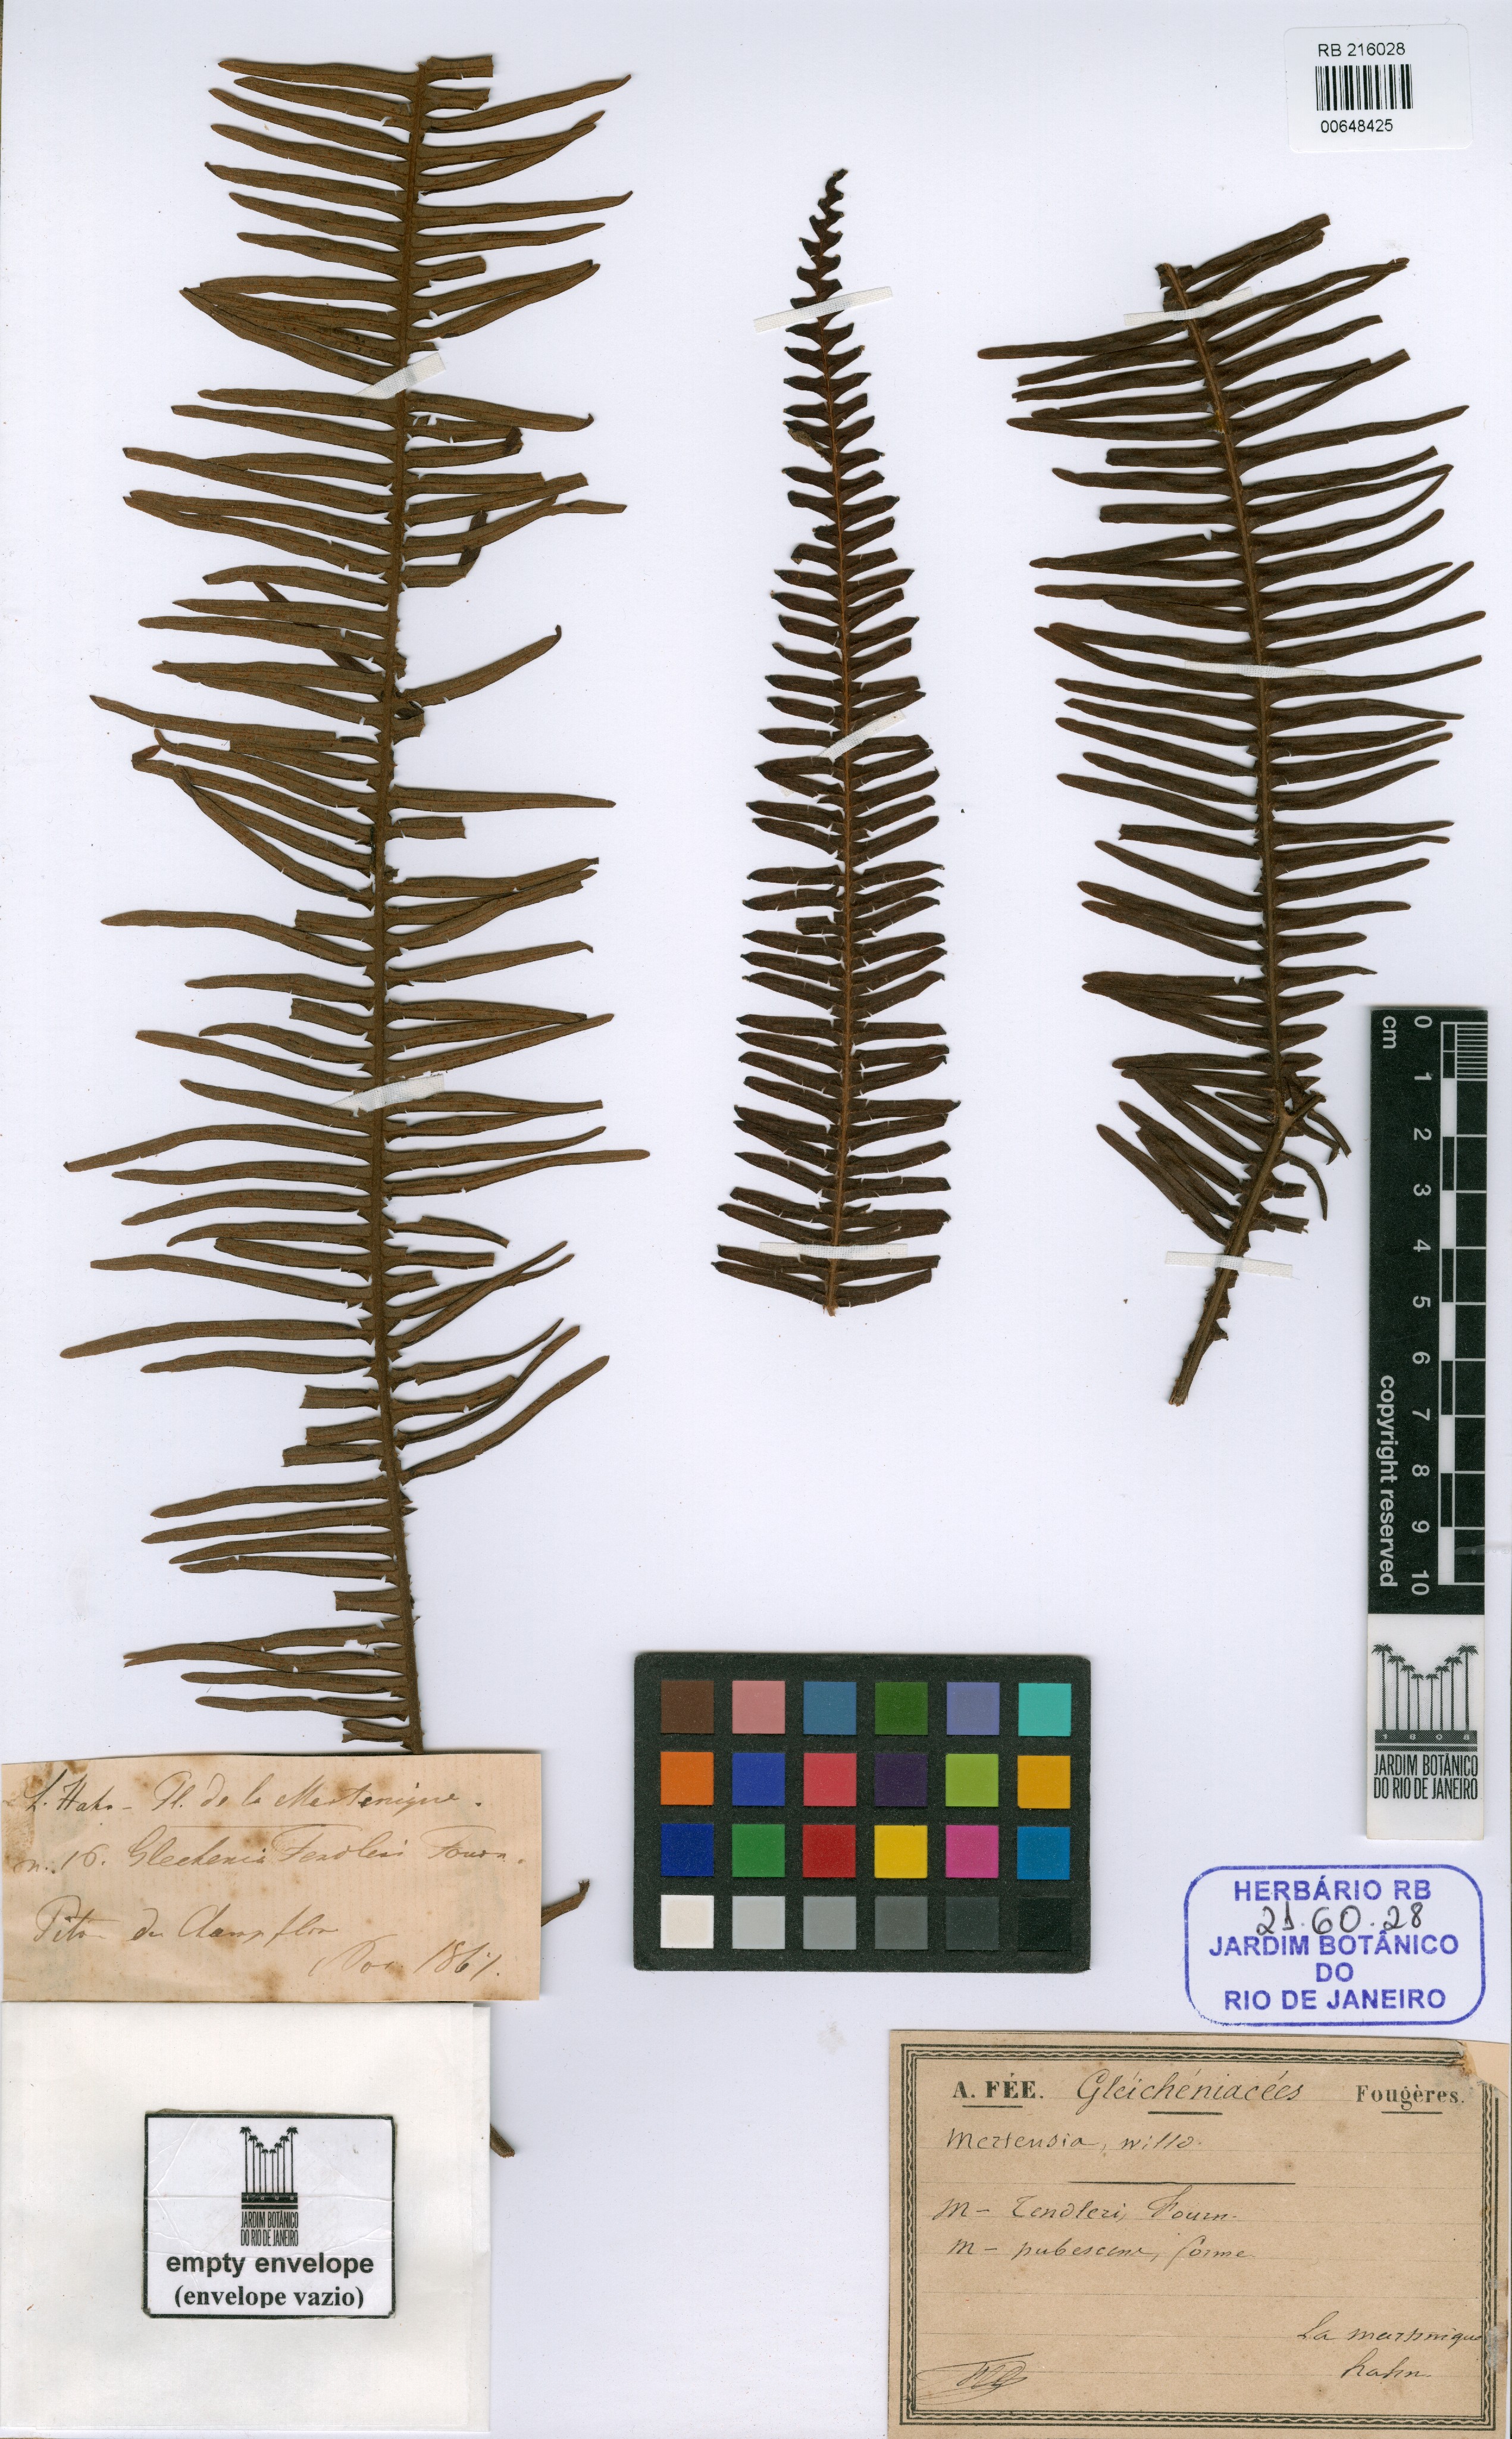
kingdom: Plantae
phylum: Tracheophyta
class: Polypodiopsida
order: Gleicheniales
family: Gleicheniaceae
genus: Sticherus
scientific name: Sticherus
